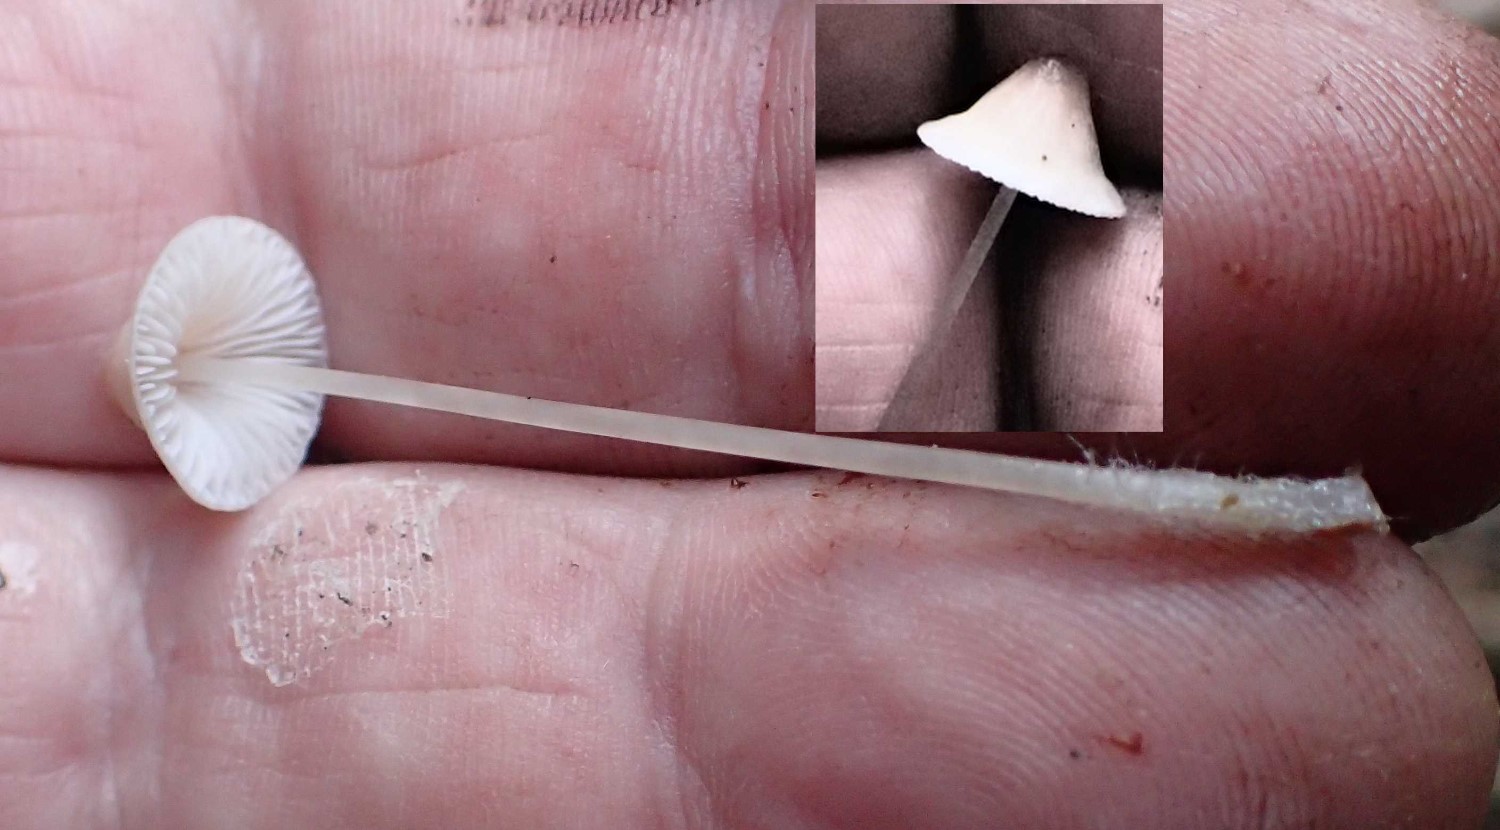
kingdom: Fungi
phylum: Basidiomycota
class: Agaricomycetes
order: Agaricales
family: Mycenaceae
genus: Mycena
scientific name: Mycena
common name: huesvamp
